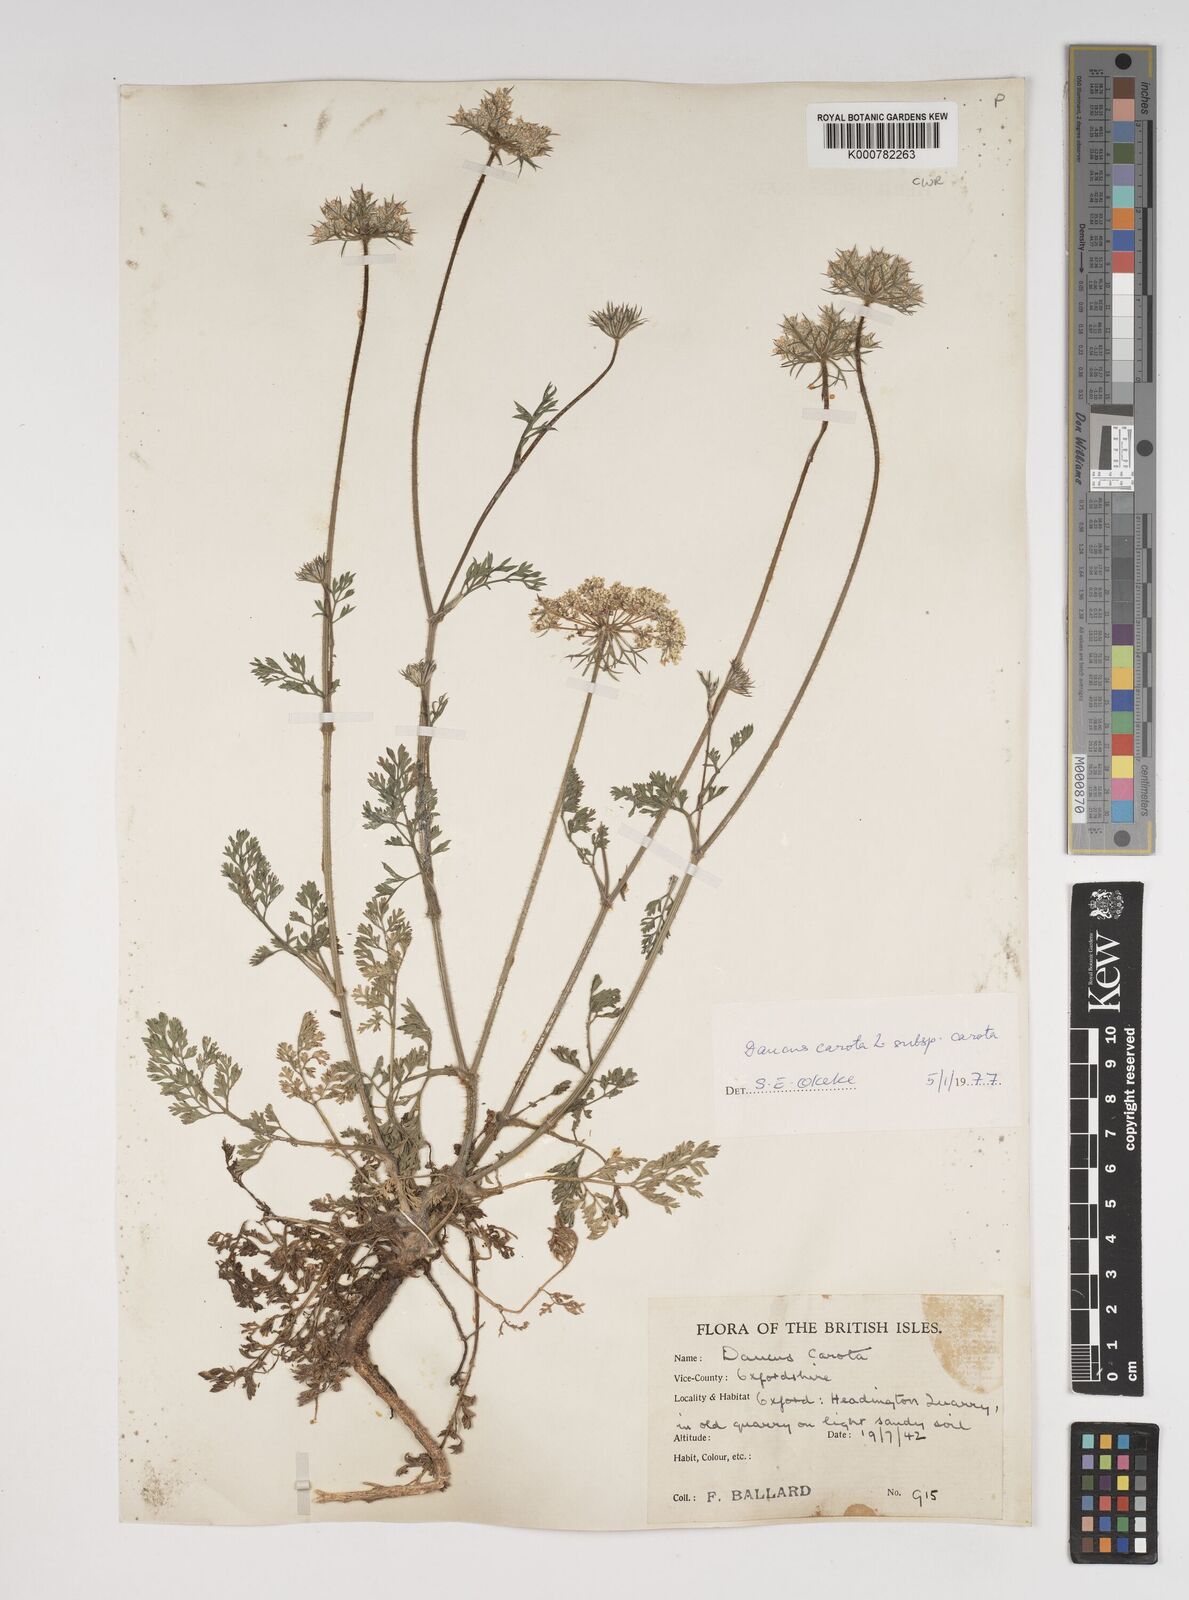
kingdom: Plantae
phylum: Tracheophyta
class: Magnoliopsida
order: Apiales
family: Apiaceae
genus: Daucus
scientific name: Daucus carota
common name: Wild carrot
